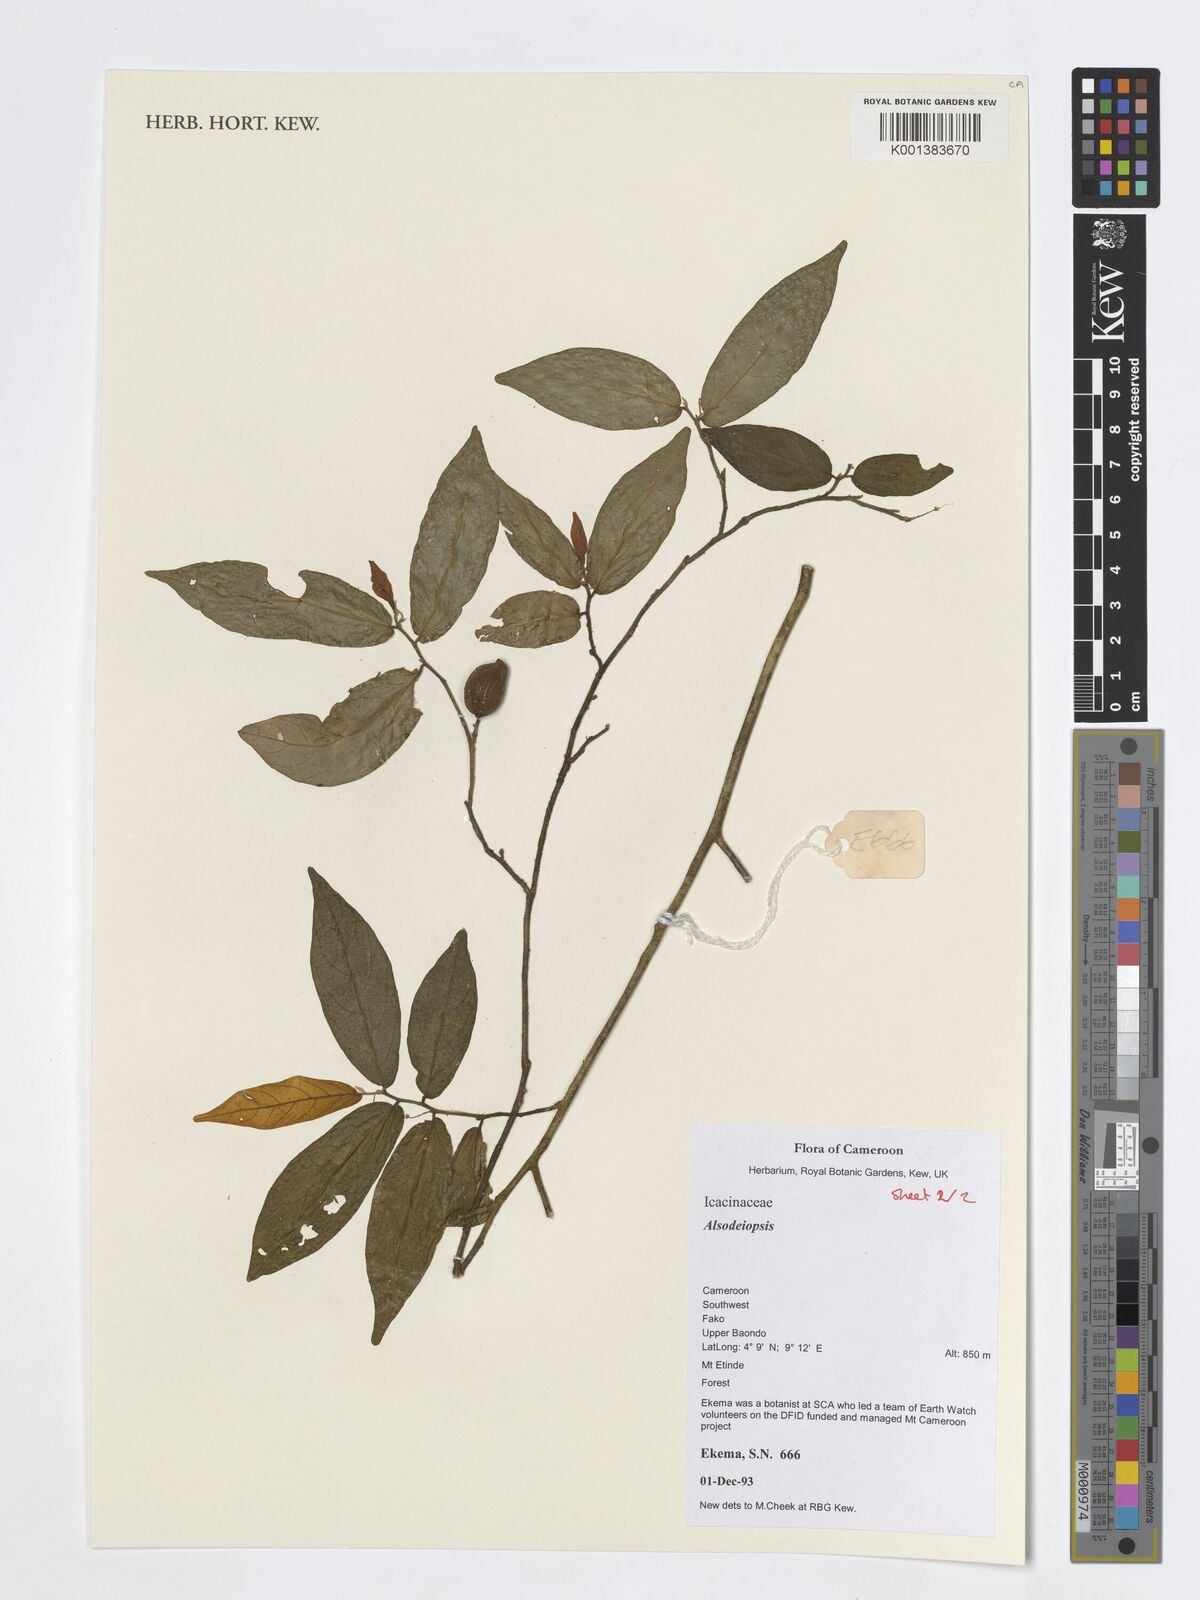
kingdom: Plantae
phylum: Tracheophyta
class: Magnoliopsida
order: Icacinales
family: Icacinaceae
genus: Alsodeiopsis
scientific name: Alsodeiopsis
